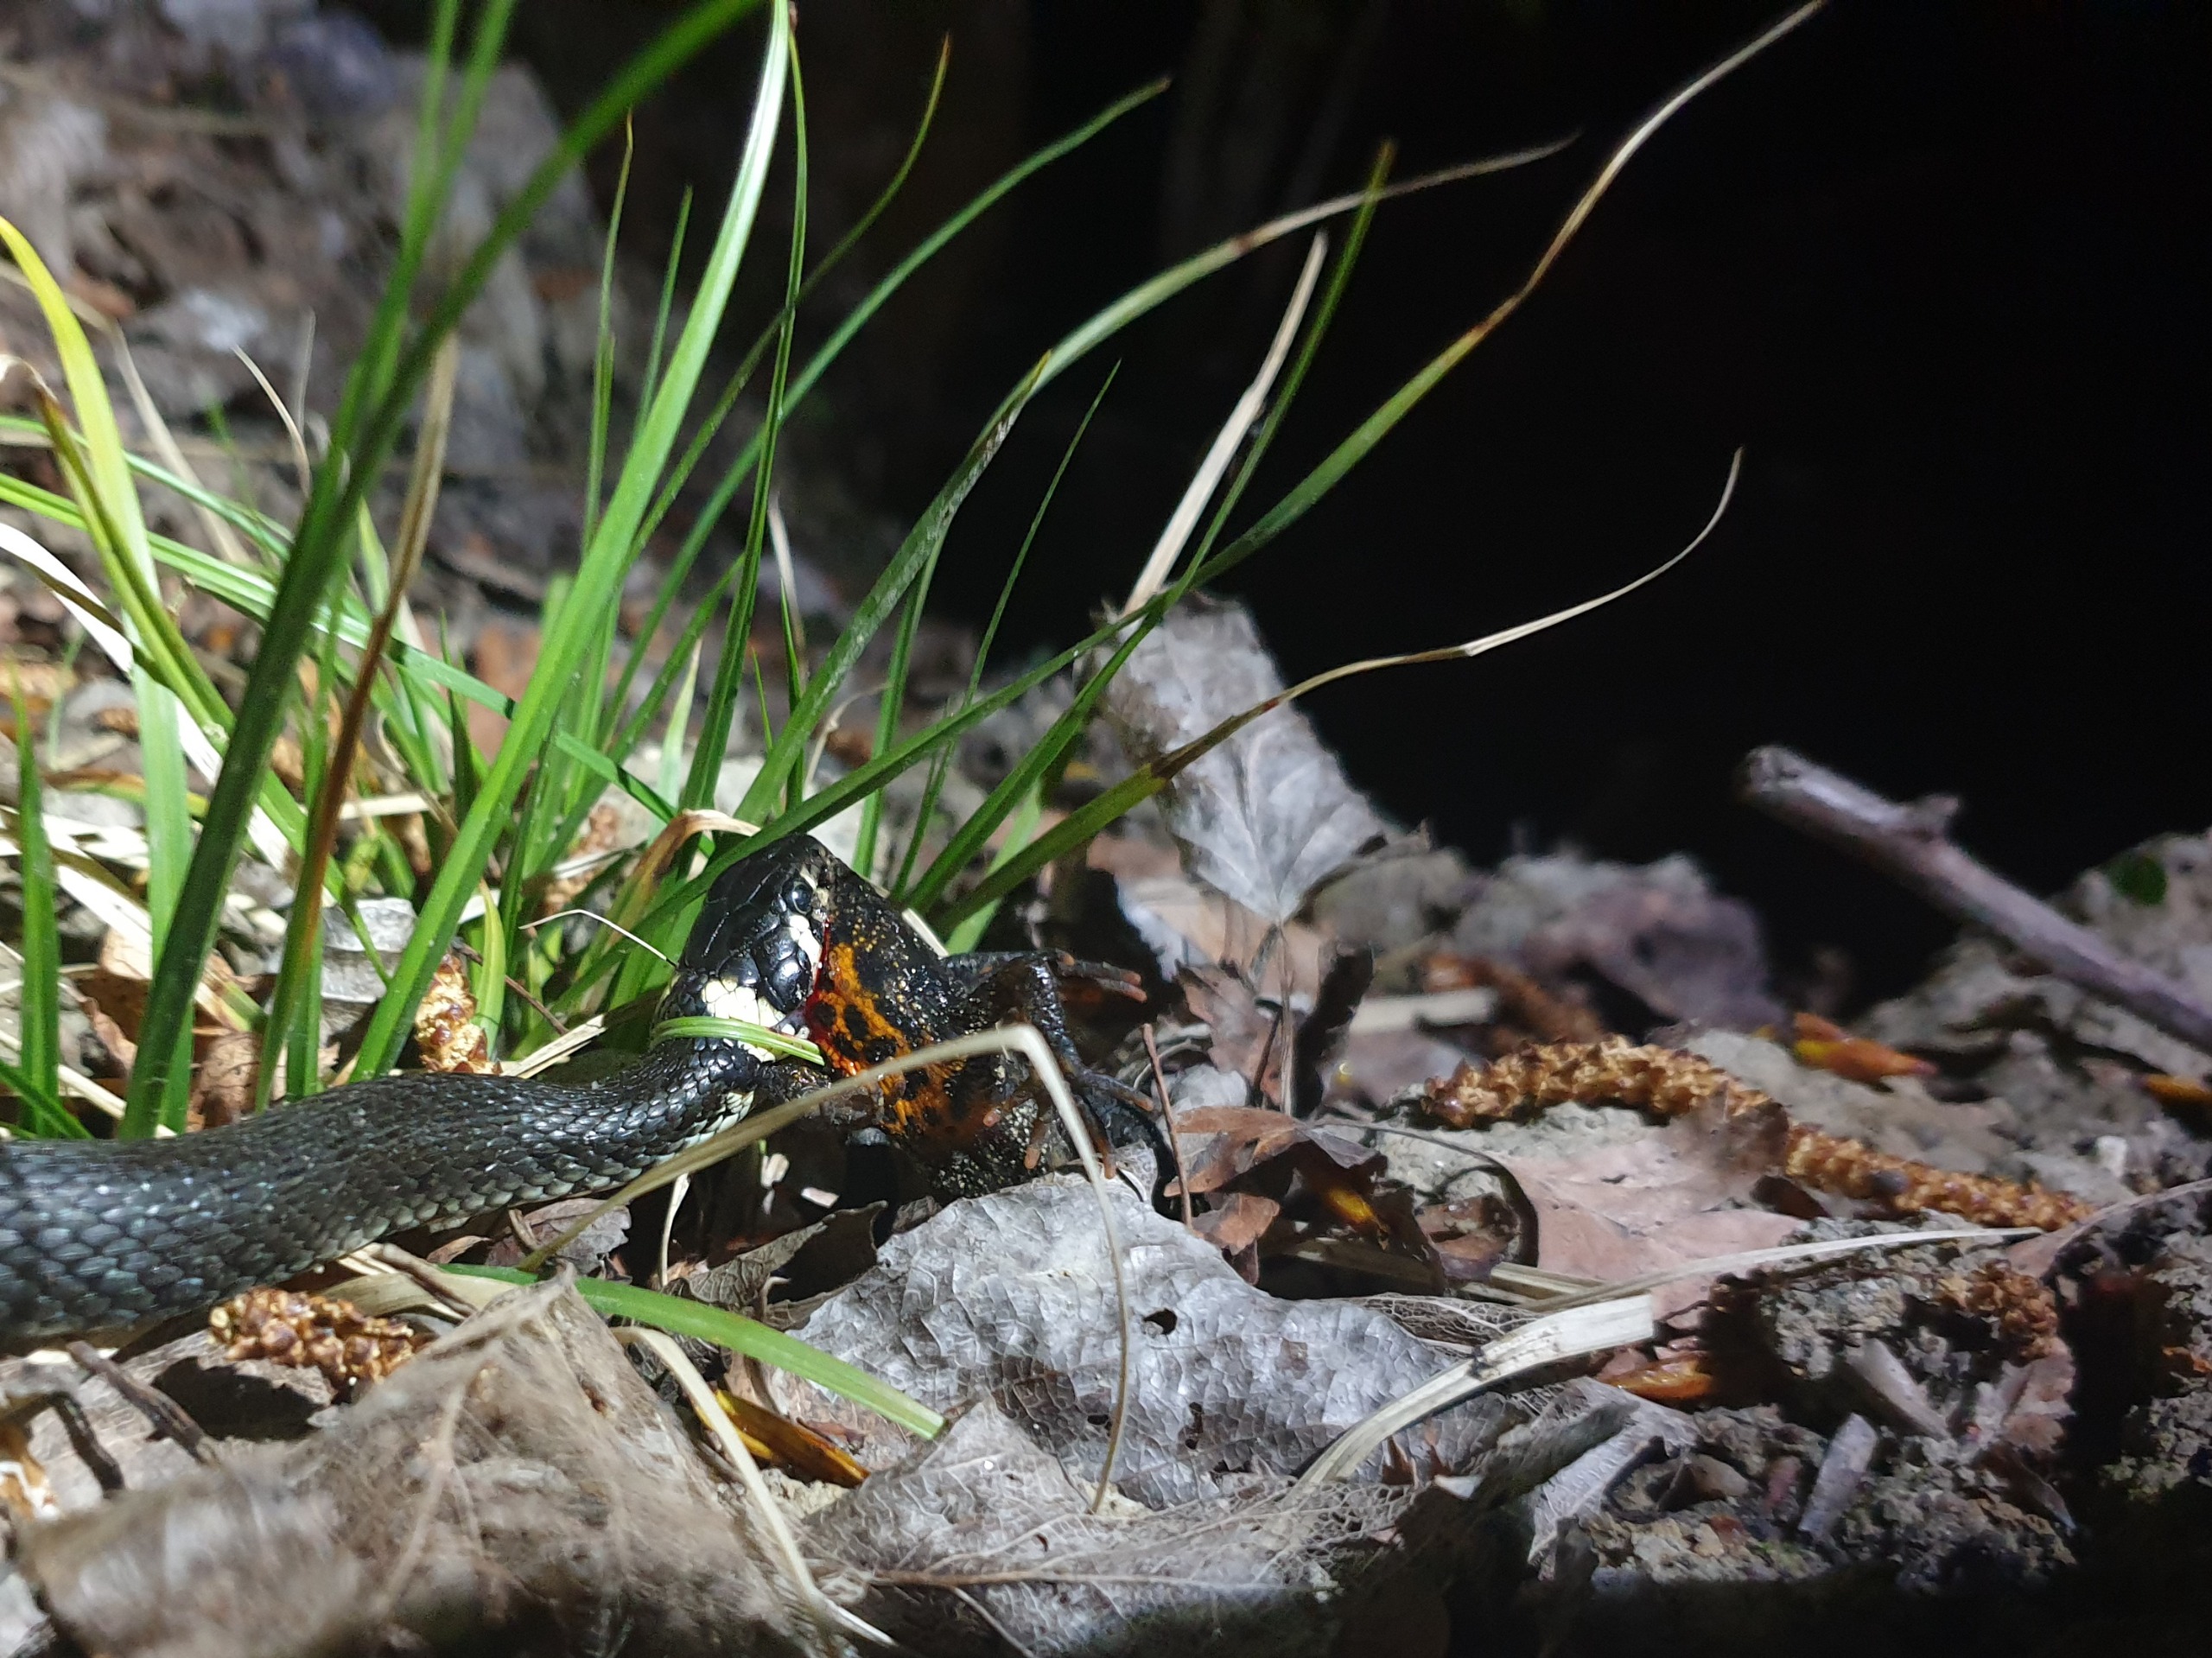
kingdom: Animalia
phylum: Chordata
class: Amphibia
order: Caudata
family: Salamandridae
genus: Triturus
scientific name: Triturus cristatus
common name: Stor vandsalamander
